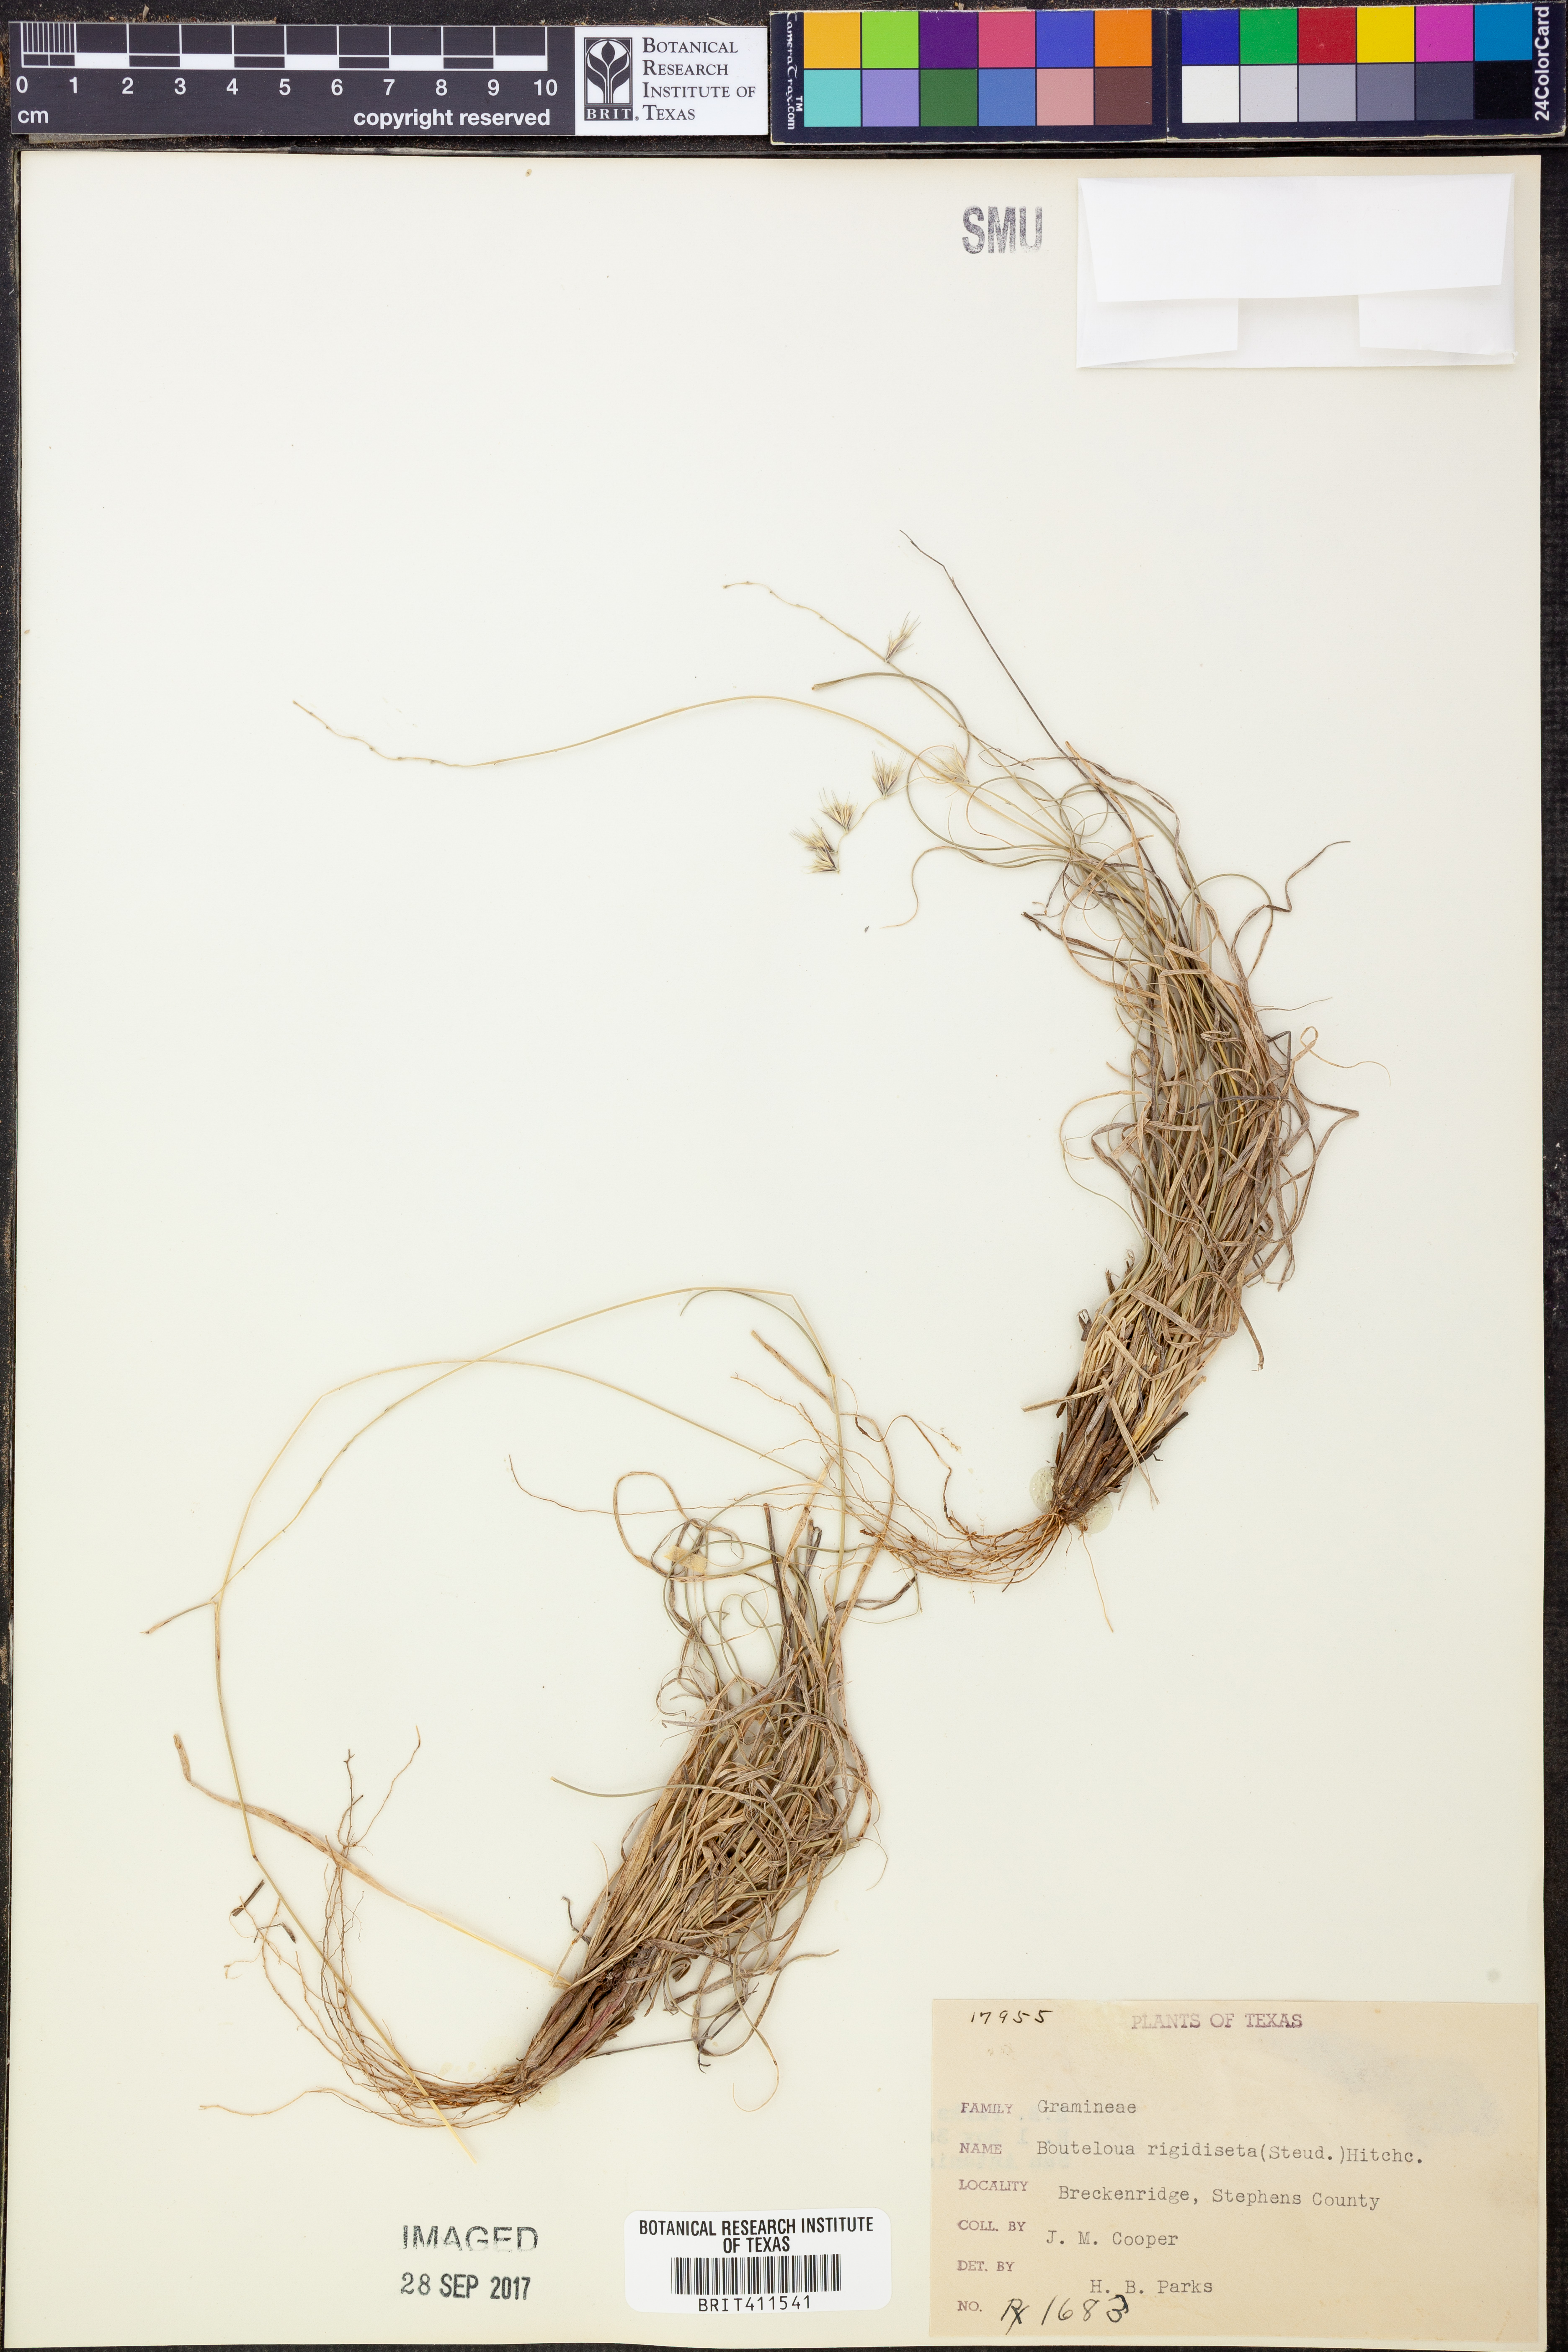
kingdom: Plantae
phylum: Tracheophyta
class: Liliopsida
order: Poales
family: Poaceae
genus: Bouteloua
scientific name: Bouteloua rigidiseta
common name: Texas grama
